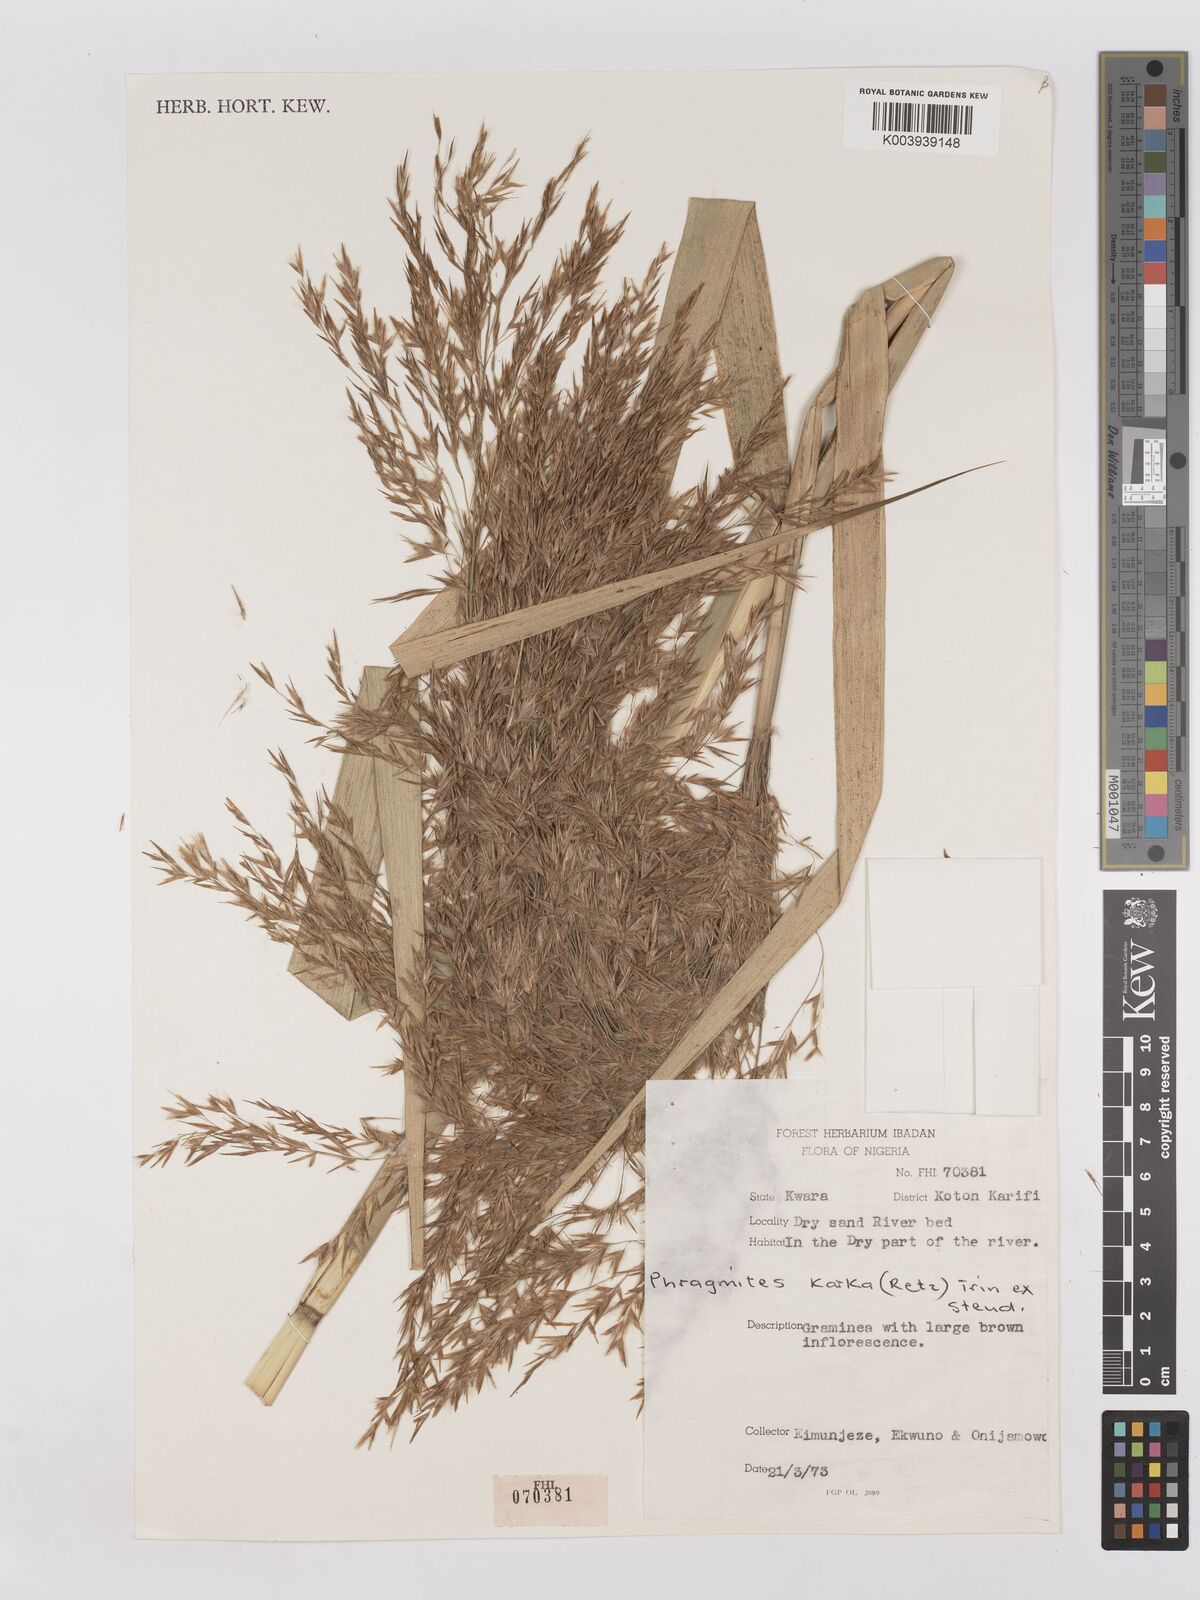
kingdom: Plantae
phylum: Tracheophyta
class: Liliopsida
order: Poales
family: Poaceae
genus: Phragmites
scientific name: Phragmites karka
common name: Tropical reed
